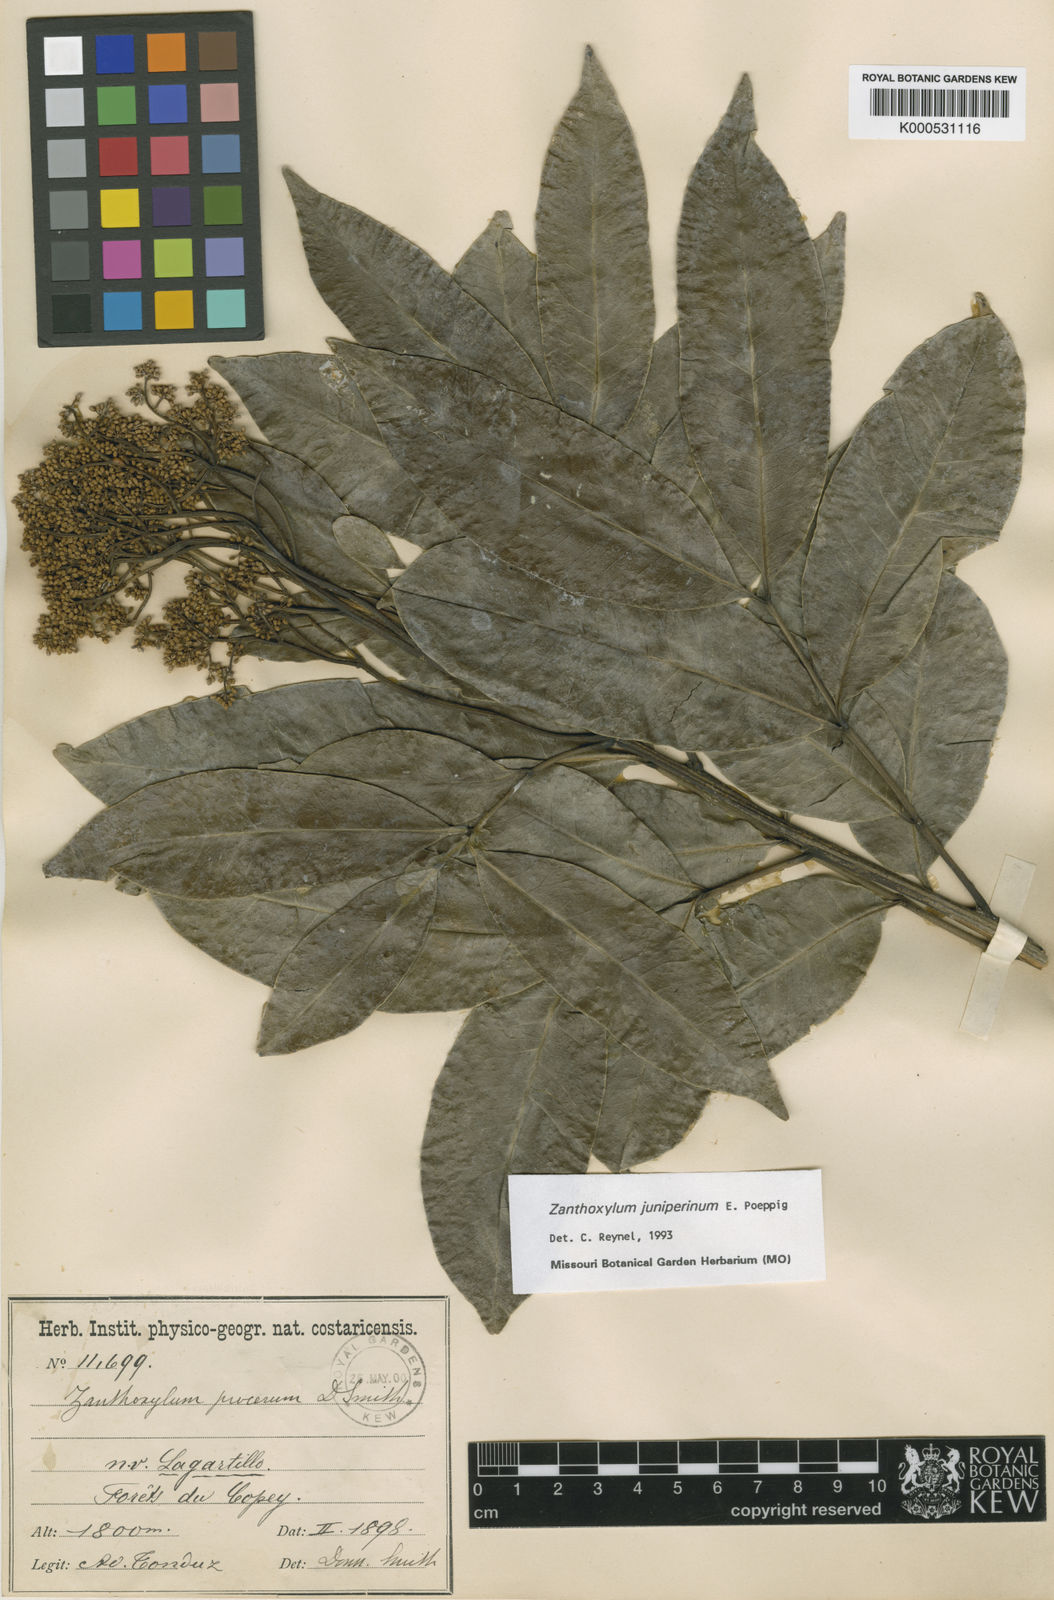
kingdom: Plantae
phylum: Tracheophyta
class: Magnoliopsida
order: Sapindales
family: Rutaceae
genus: Zanthoxylum
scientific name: Zanthoxylum acuminatum
